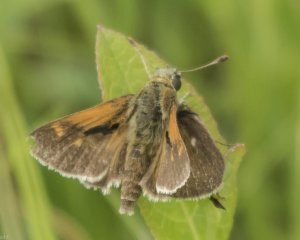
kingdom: Animalia
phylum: Arthropoda
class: Insecta
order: Lepidoptera
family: Hesperiidae
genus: Polites
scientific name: Polites themistocles
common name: Tawny-edged Skipper
